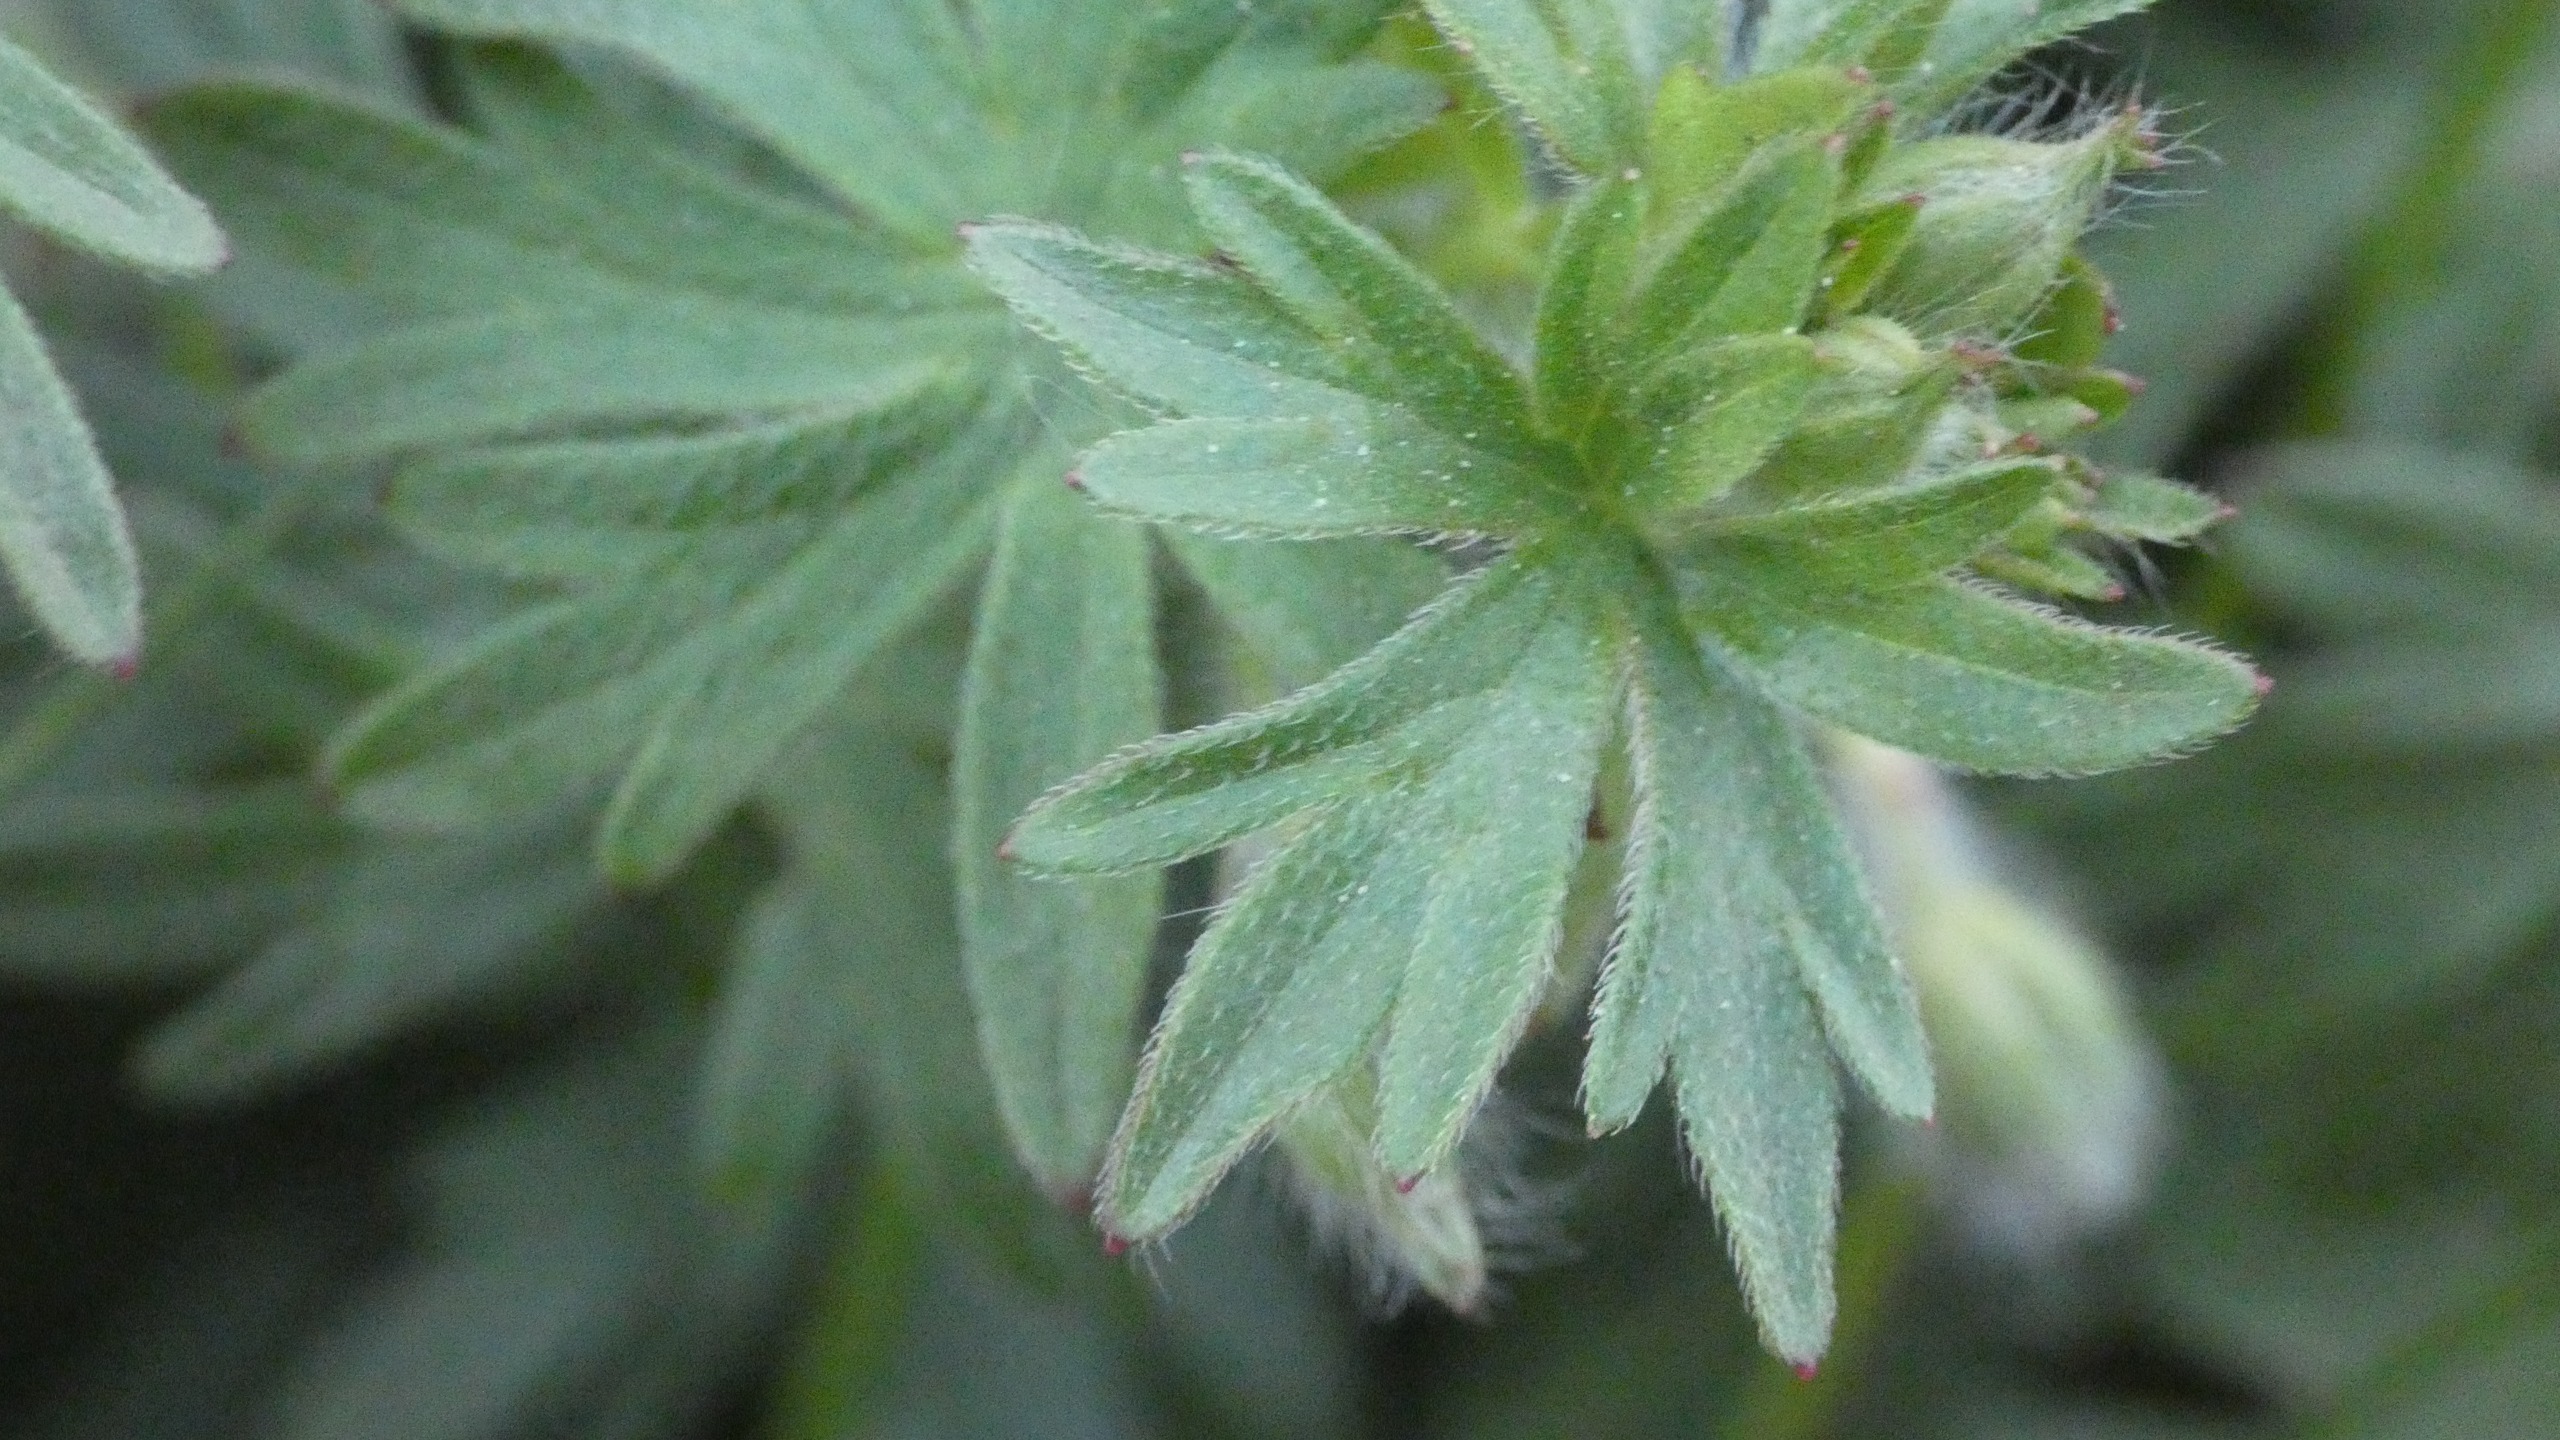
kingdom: Plantae
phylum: Tracheophyta
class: Magnoliopsida
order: Geraniales
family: Geraniaceae
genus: Geranium
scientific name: Geranium sanguineum
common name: Blodrød storkenæb
